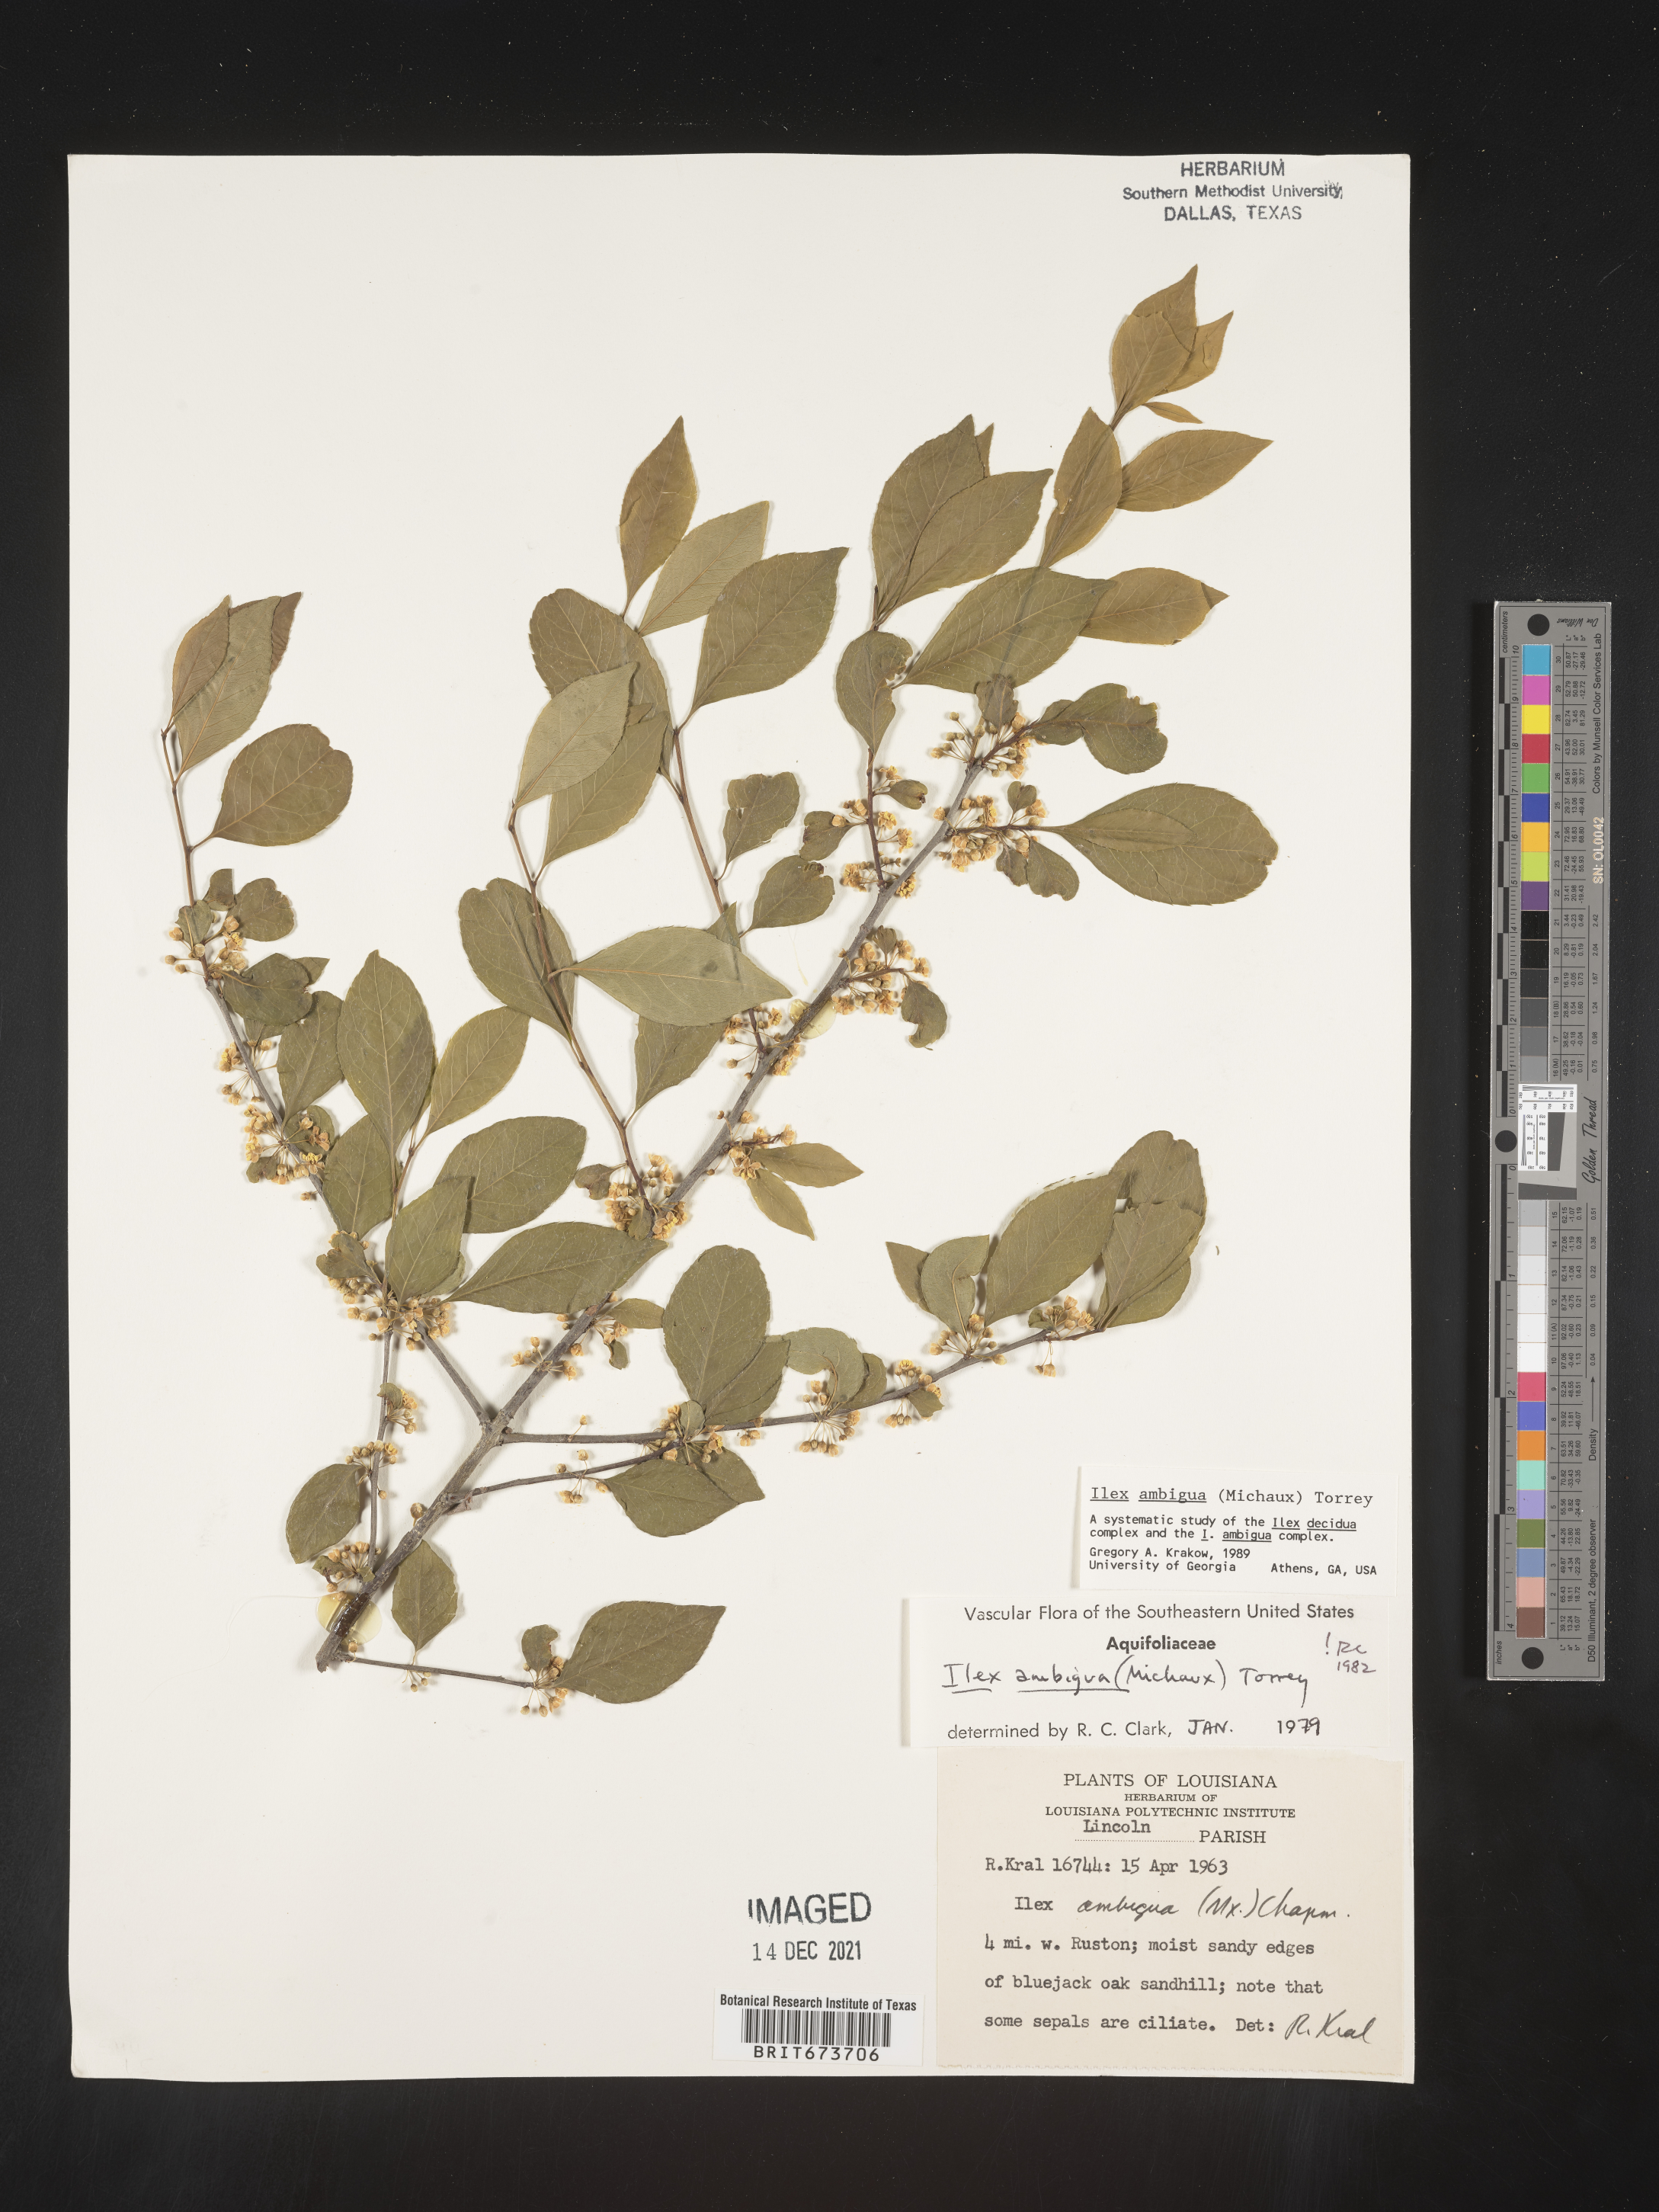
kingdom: Plantae
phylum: Tracheophyta
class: Magnoliopsida
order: Aquifoliales
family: Aquifoliaceae
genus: Ilex
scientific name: Ilex ambigua
